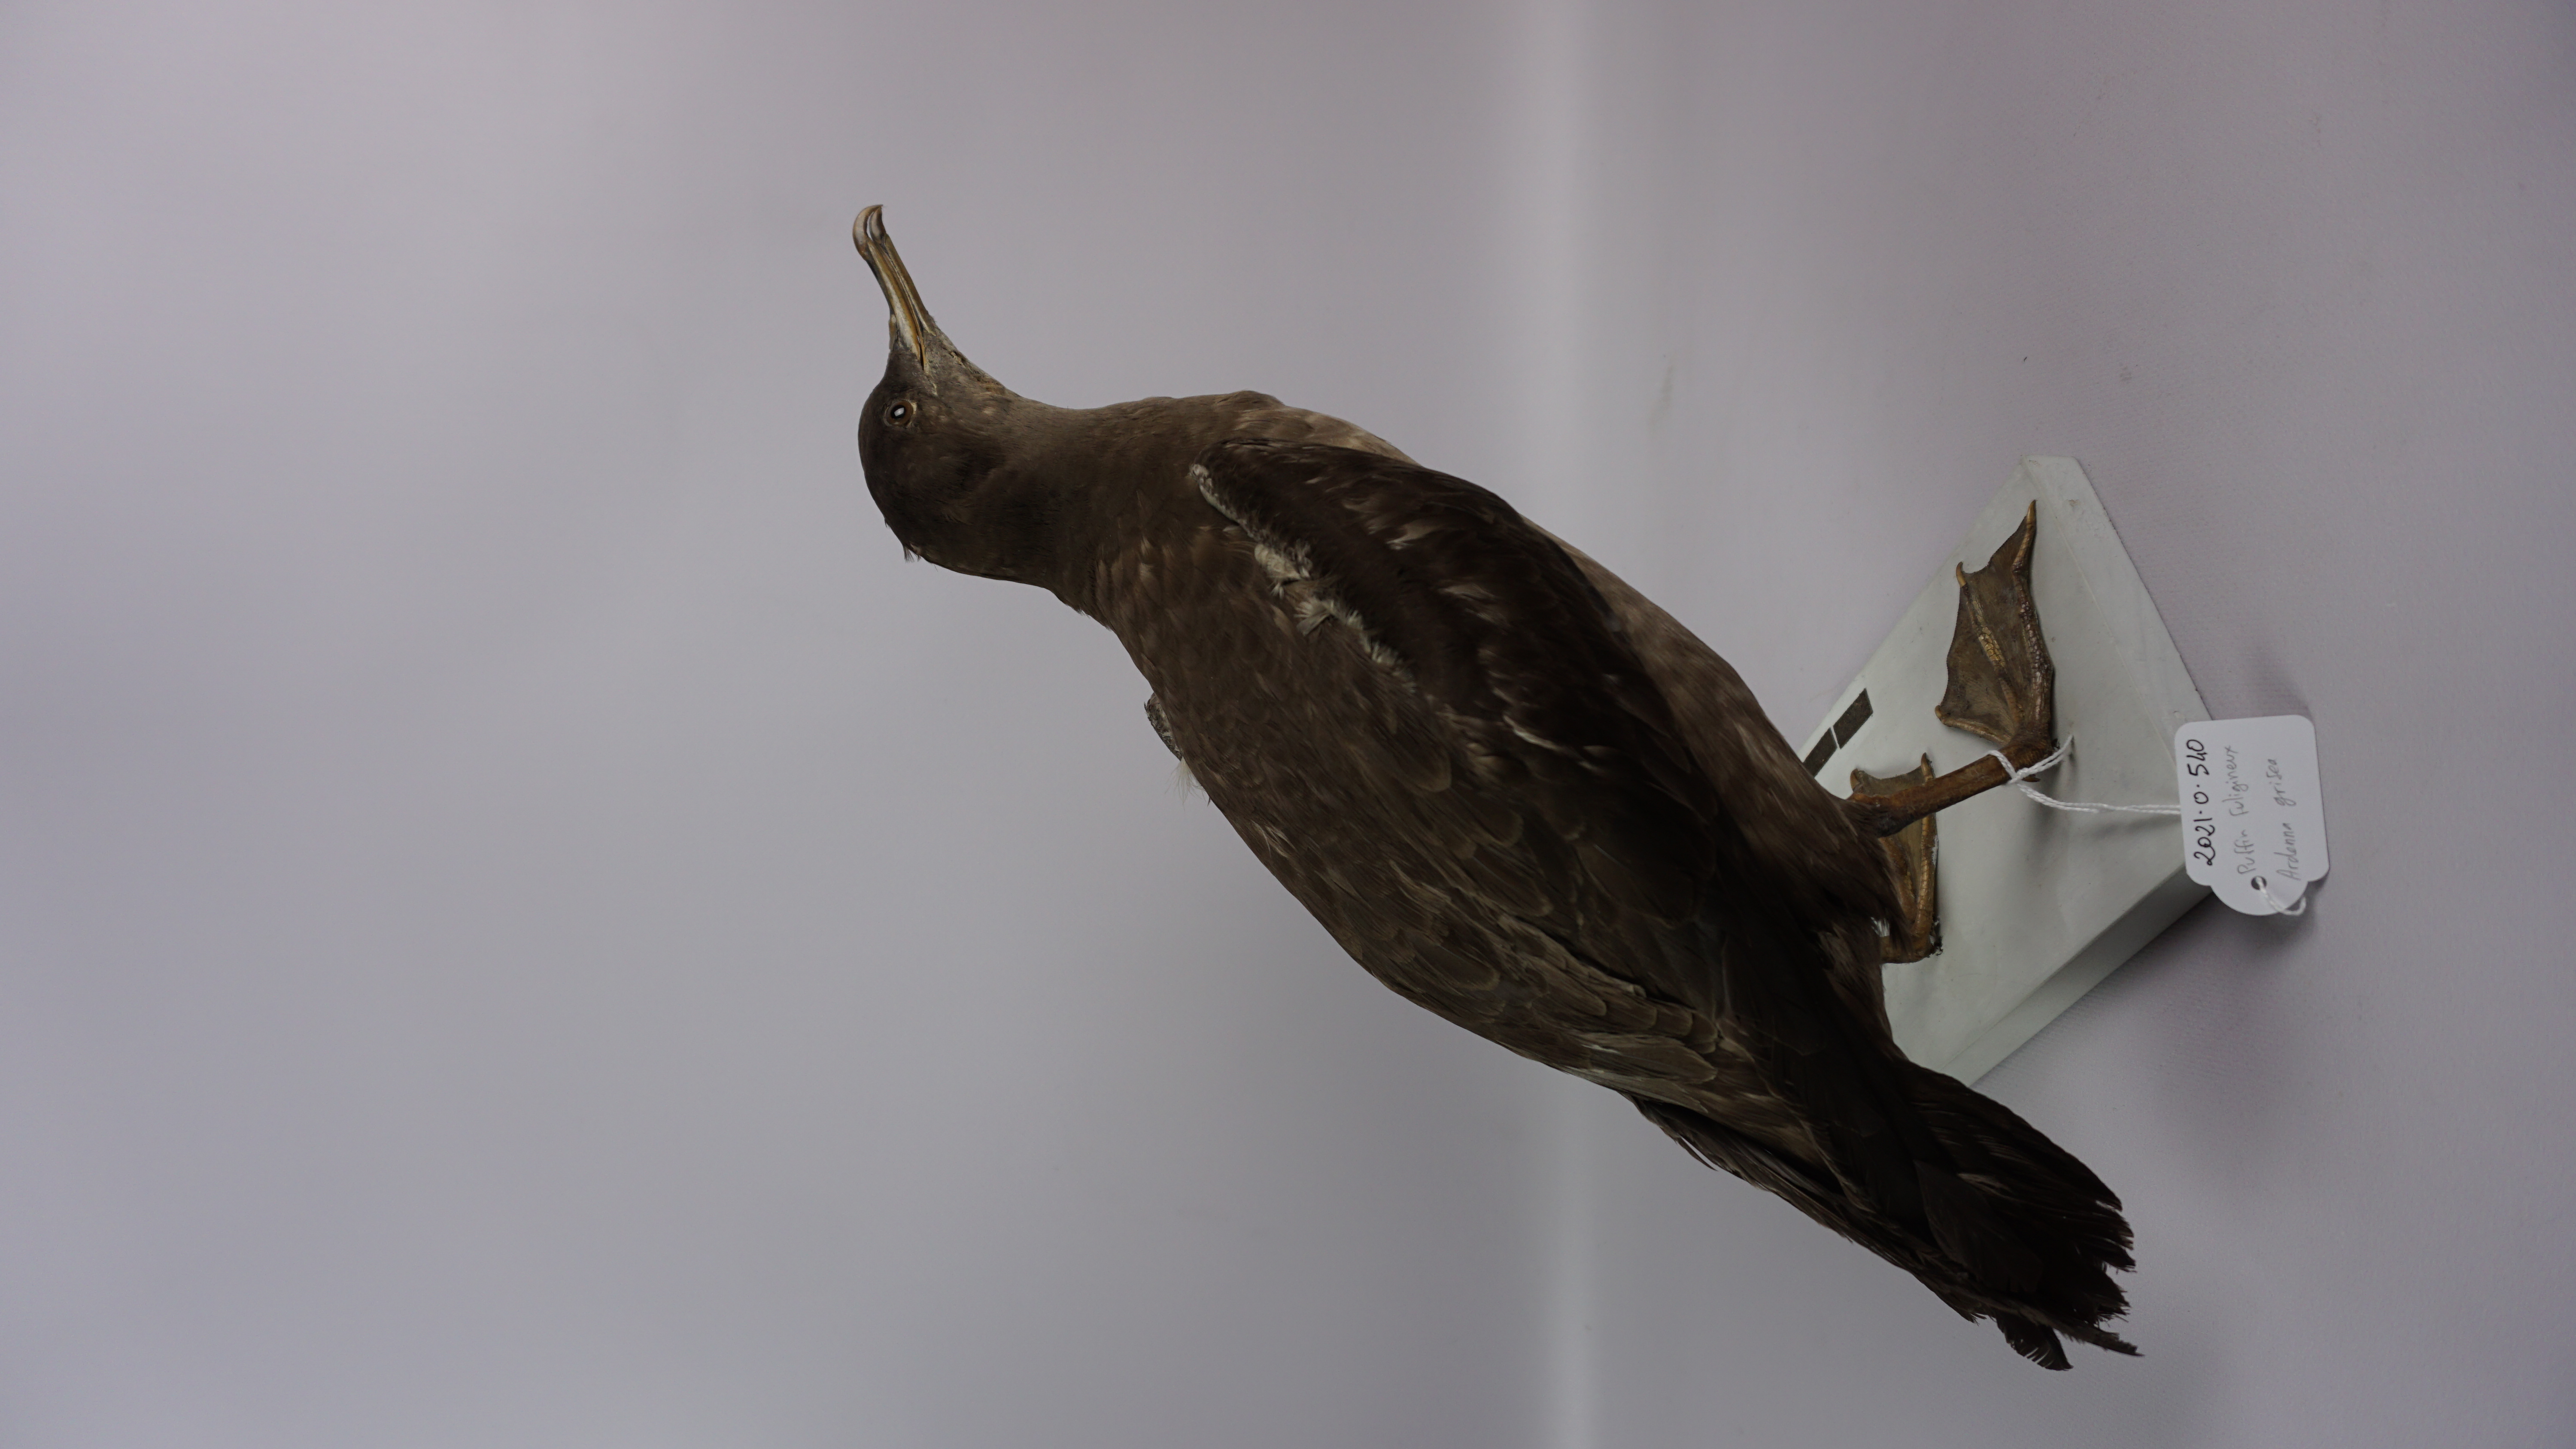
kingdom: Animalia
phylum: Chordata
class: Aves
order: Procellariiformes
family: Procellariidae
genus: Puffinus
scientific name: Puffinus griseus
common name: Sooty shearwater
